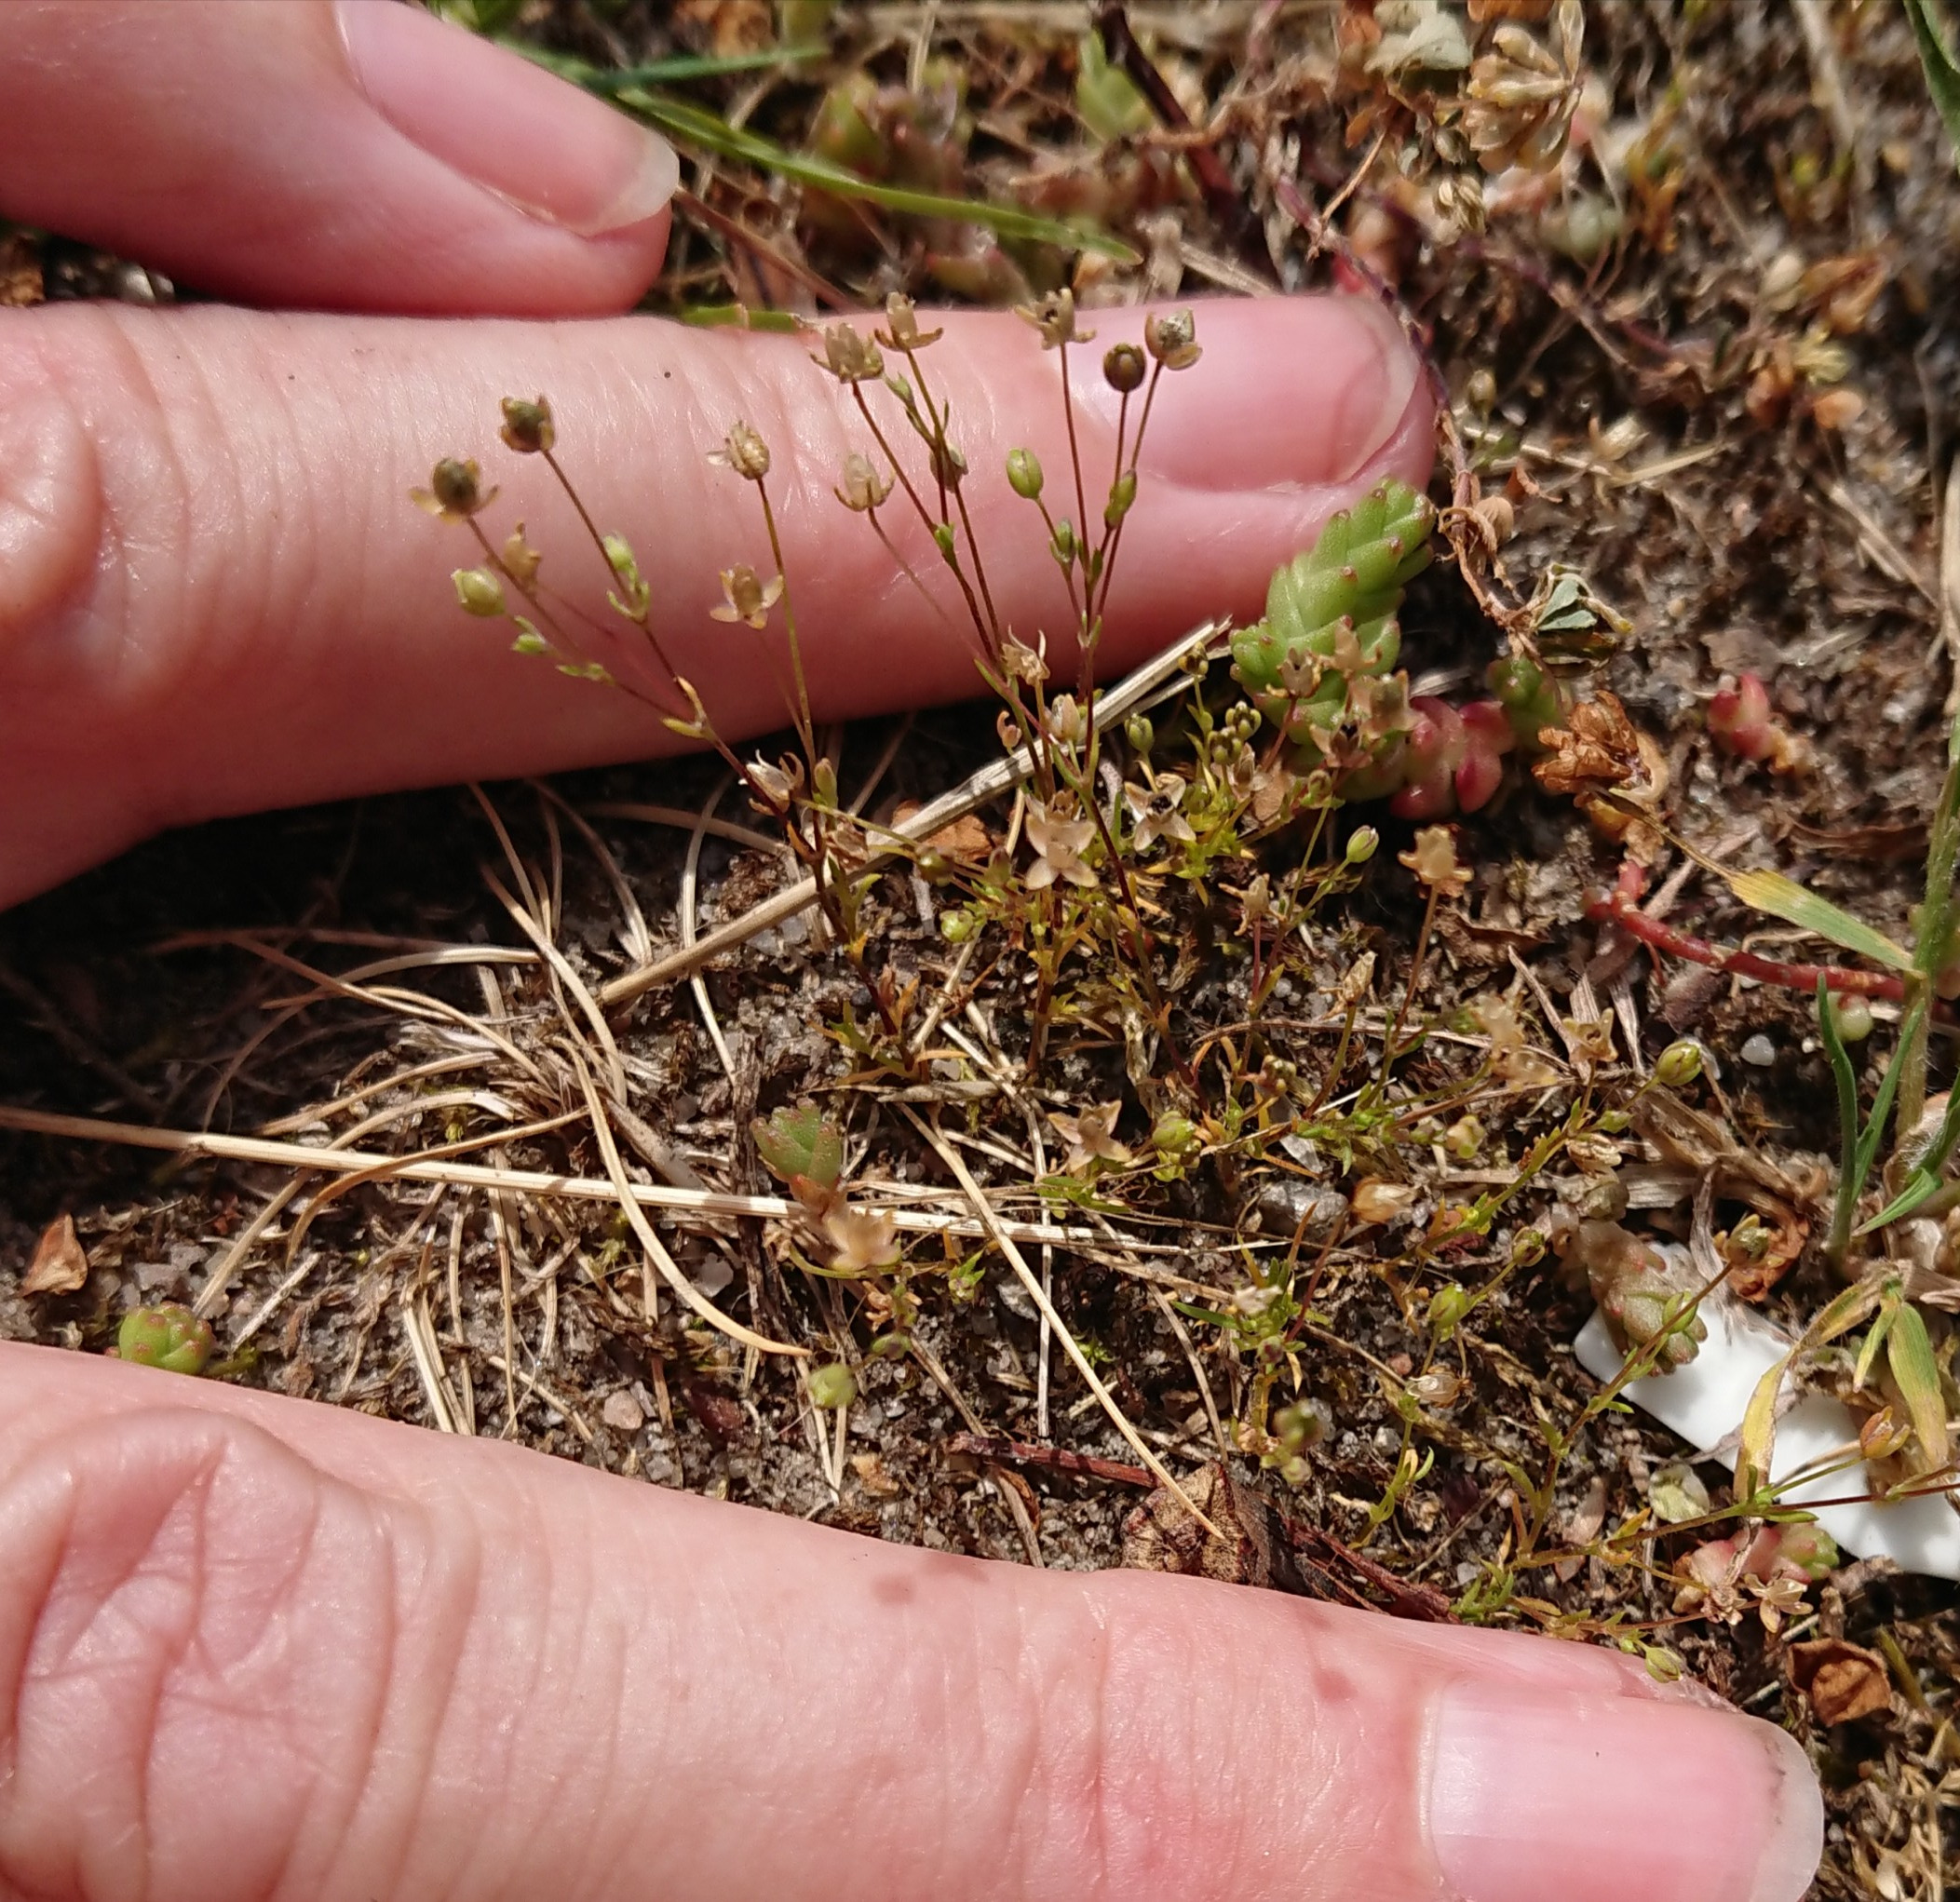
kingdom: Plantae
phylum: Tracheophyta
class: Magnoliopsida
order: Caryophyllales
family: Caryophyllaceae
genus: Sagina
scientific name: Sagina micropetala
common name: Håret firling
